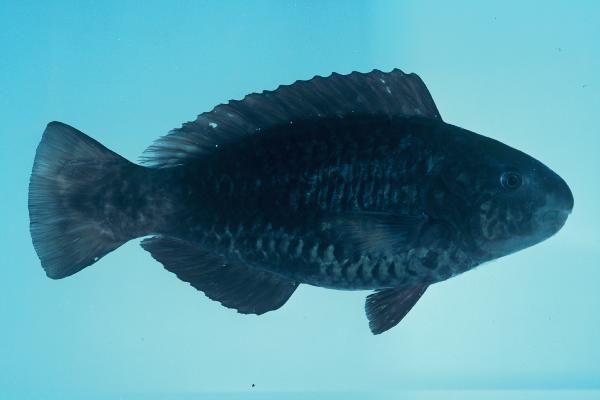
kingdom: Animalia
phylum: Chordata
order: Perciformes
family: Scaridae
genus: Scarus
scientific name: Scarus russelii
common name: Eclipse parrotfish
